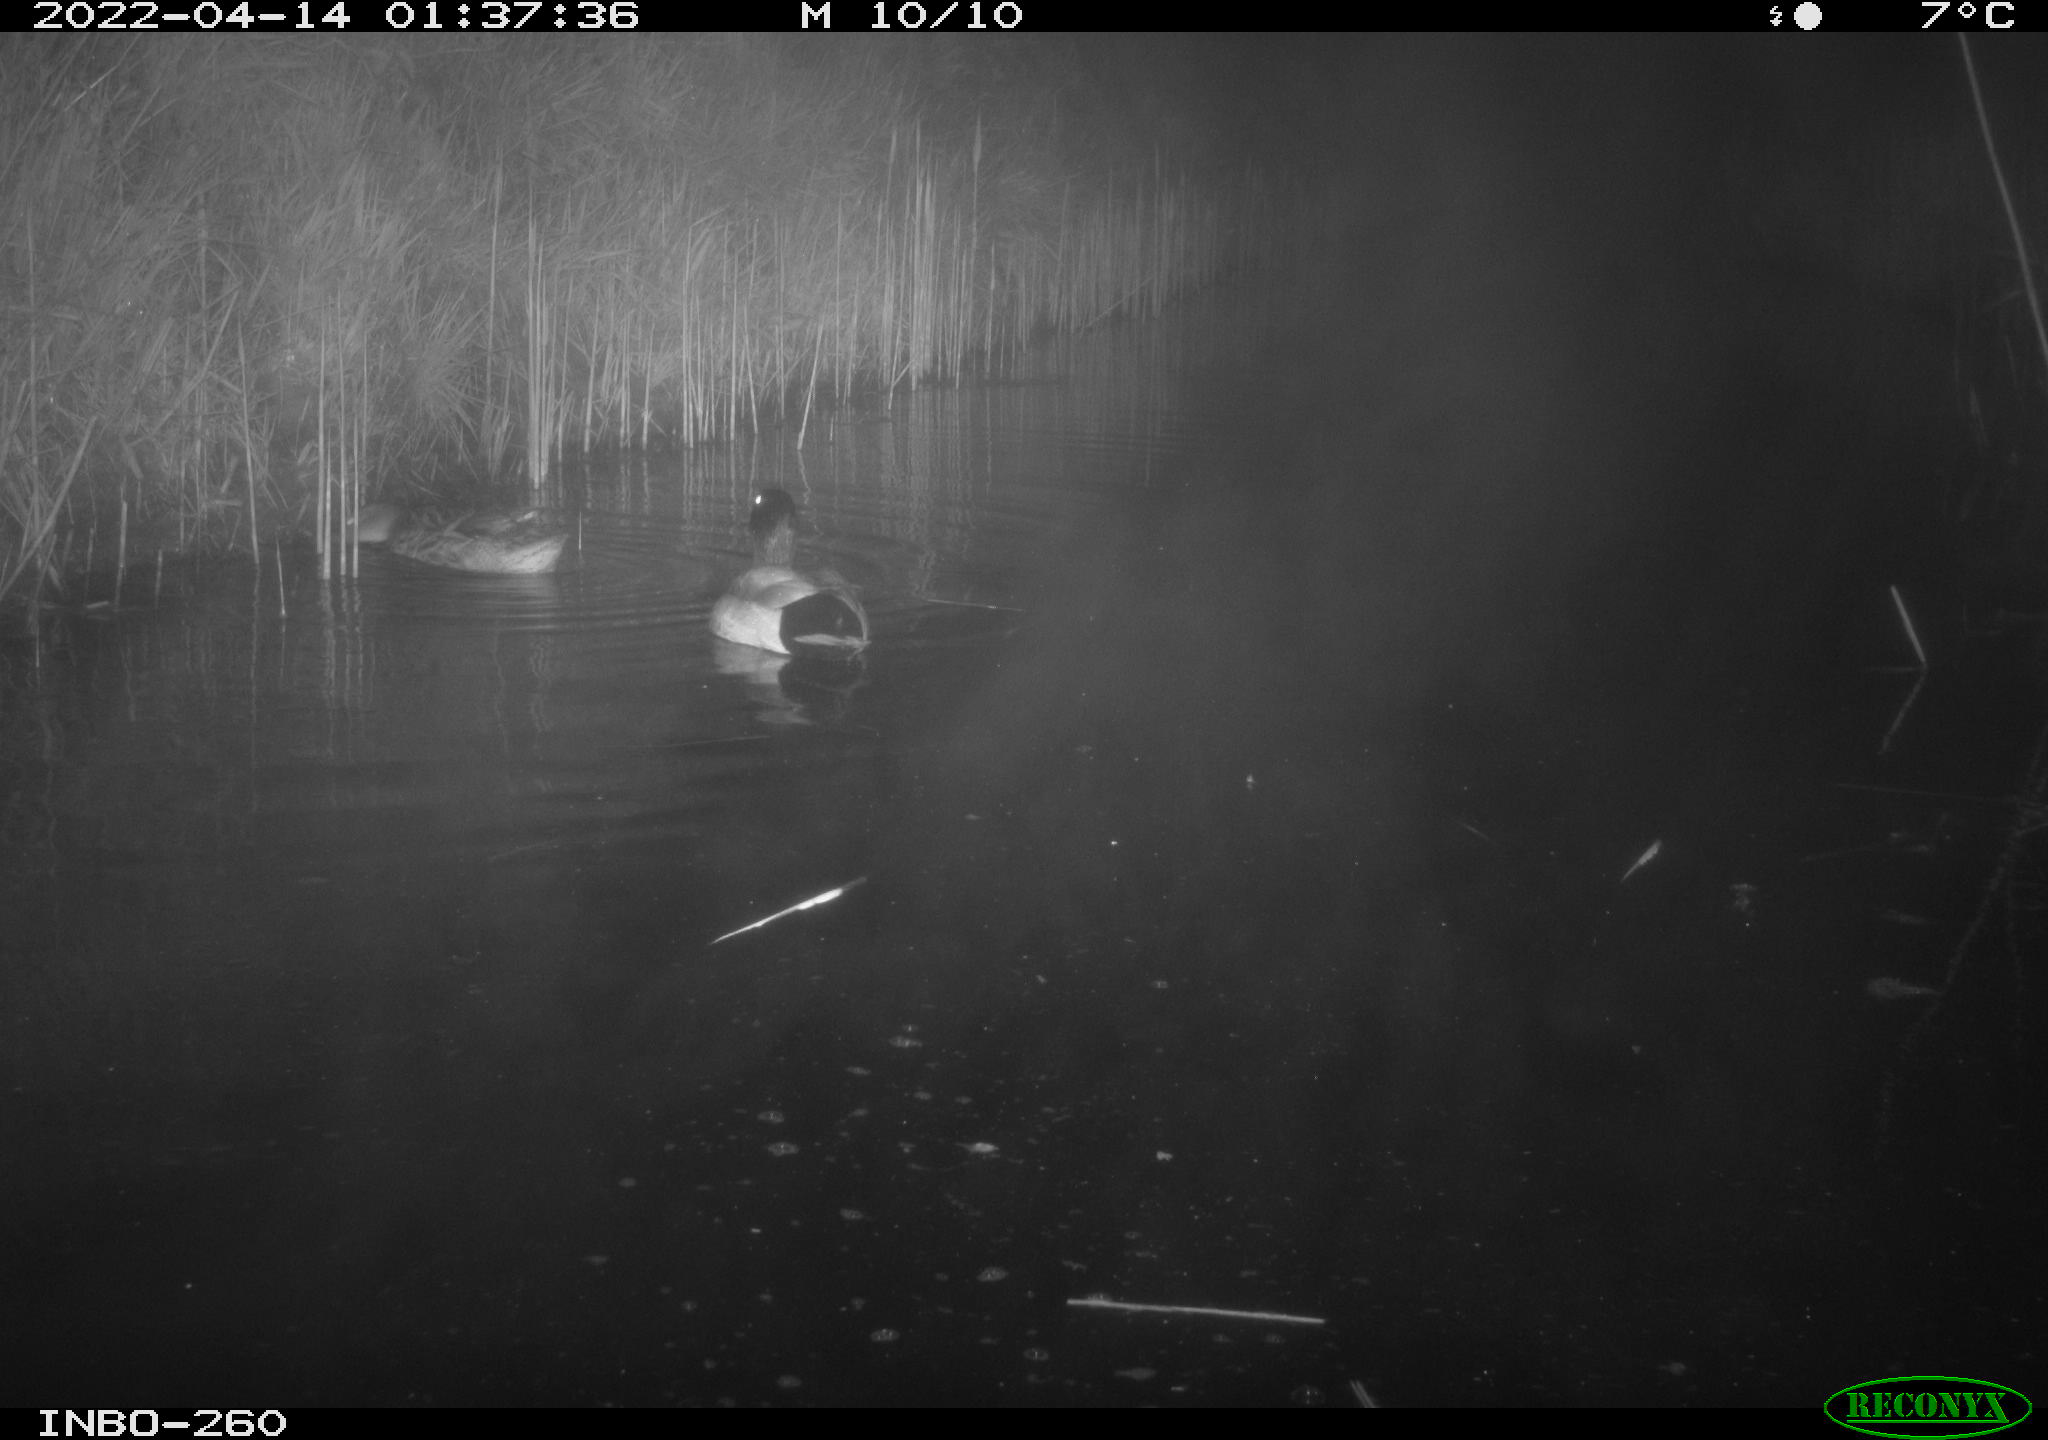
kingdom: Animalia
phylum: Chordata
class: Aves
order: Anseriformes
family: Anatidae
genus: Anas
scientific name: Anas platyrhynchos
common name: Mallard
